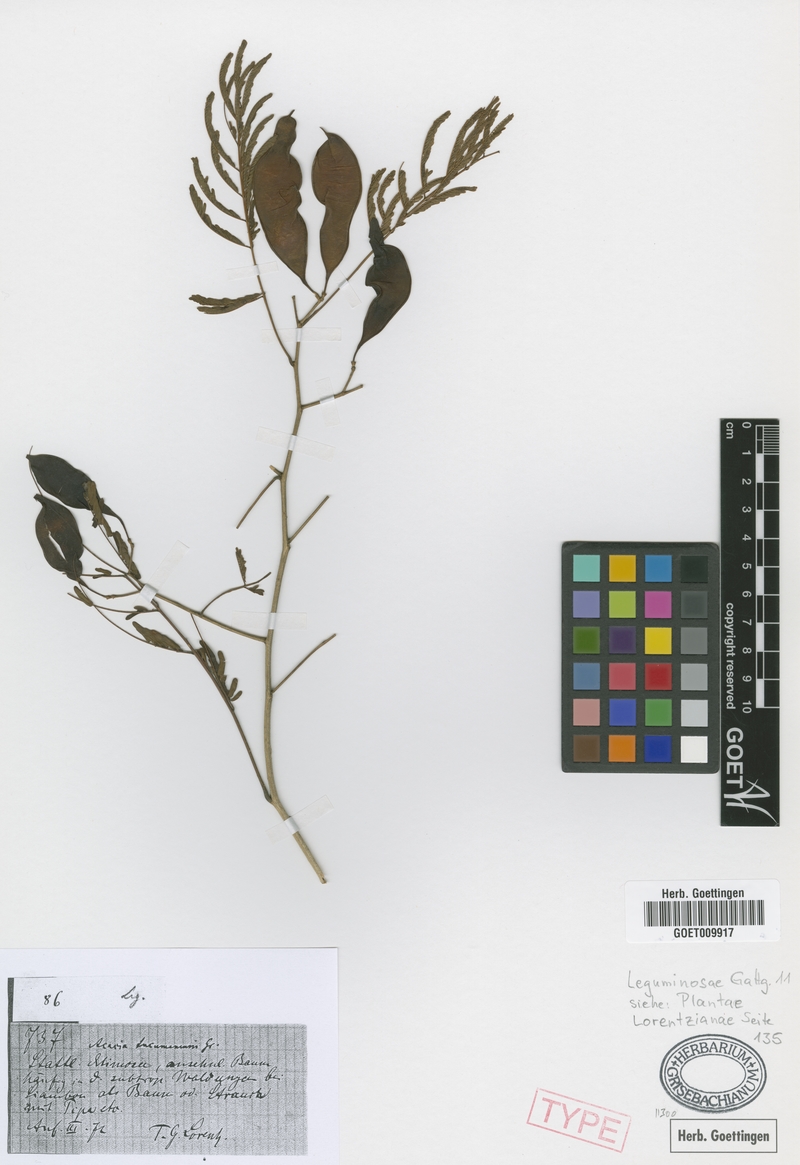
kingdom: Plantae
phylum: Tracheophyta
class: Magnoliopsida
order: Fabales
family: Fabaceae
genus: Senegalia
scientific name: Senegalia tucumanensis
